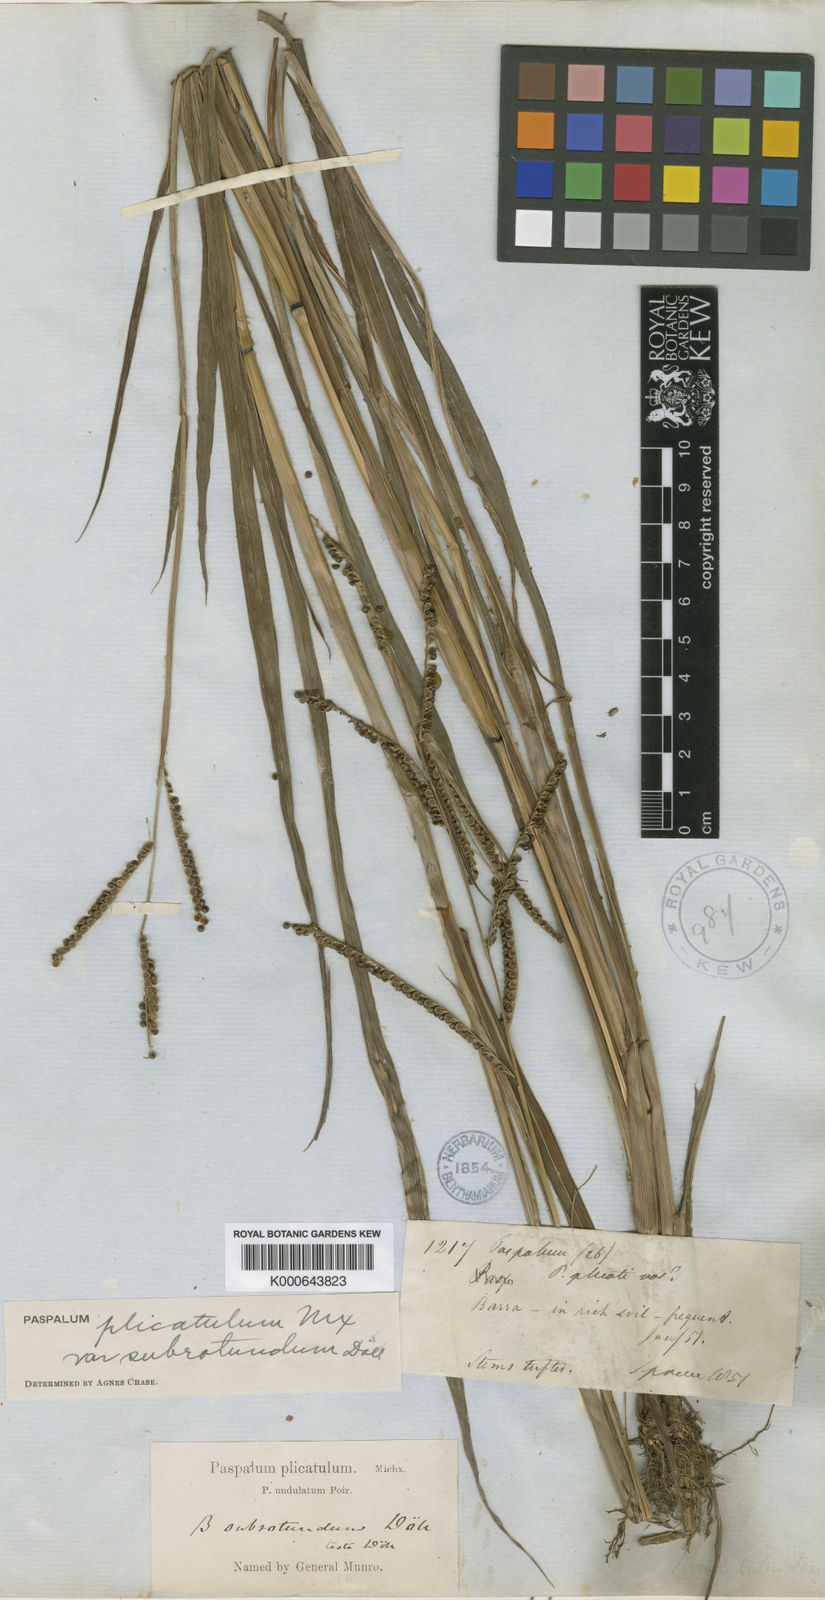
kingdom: Plantae
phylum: Tracheophyta
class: Liliopsida
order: Poales
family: Poaceae
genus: Paspalum
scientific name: Paspalum
